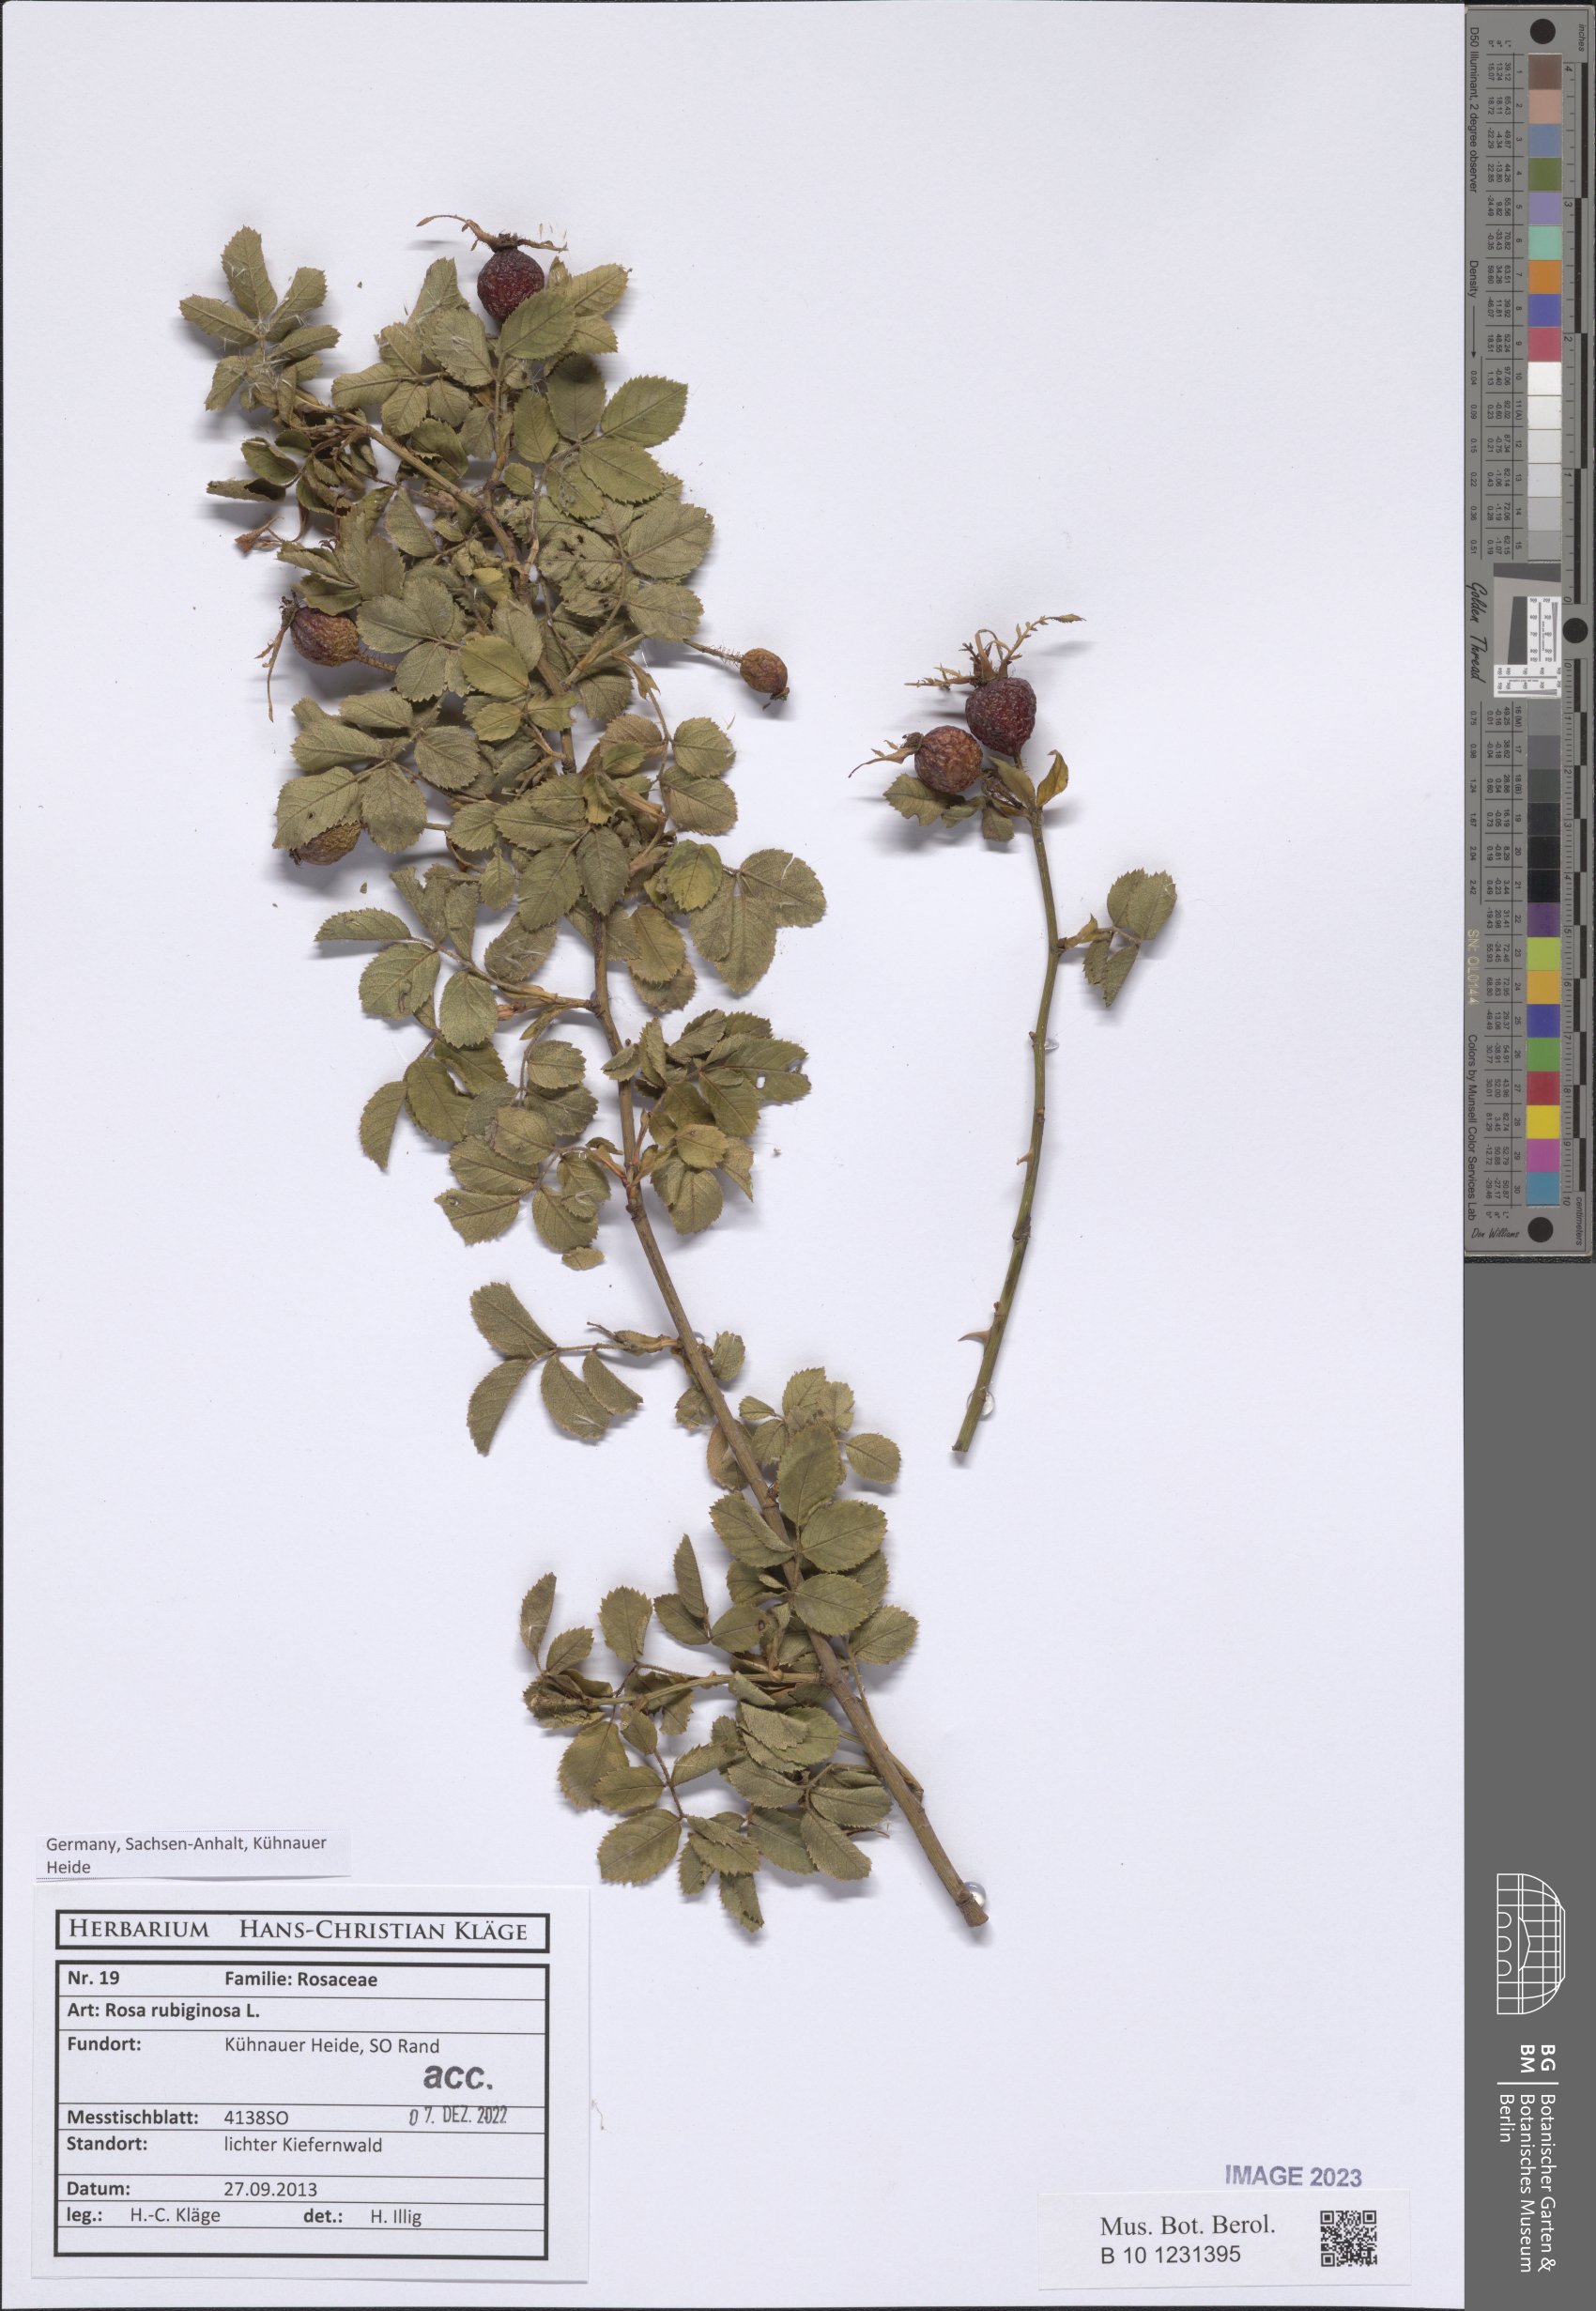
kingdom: Plantae
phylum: Tracheophyta
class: Magnoliopsida
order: Rosales
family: Rosaceae
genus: Rosa
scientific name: Rosa rubiginosa
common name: Sweet-briar
